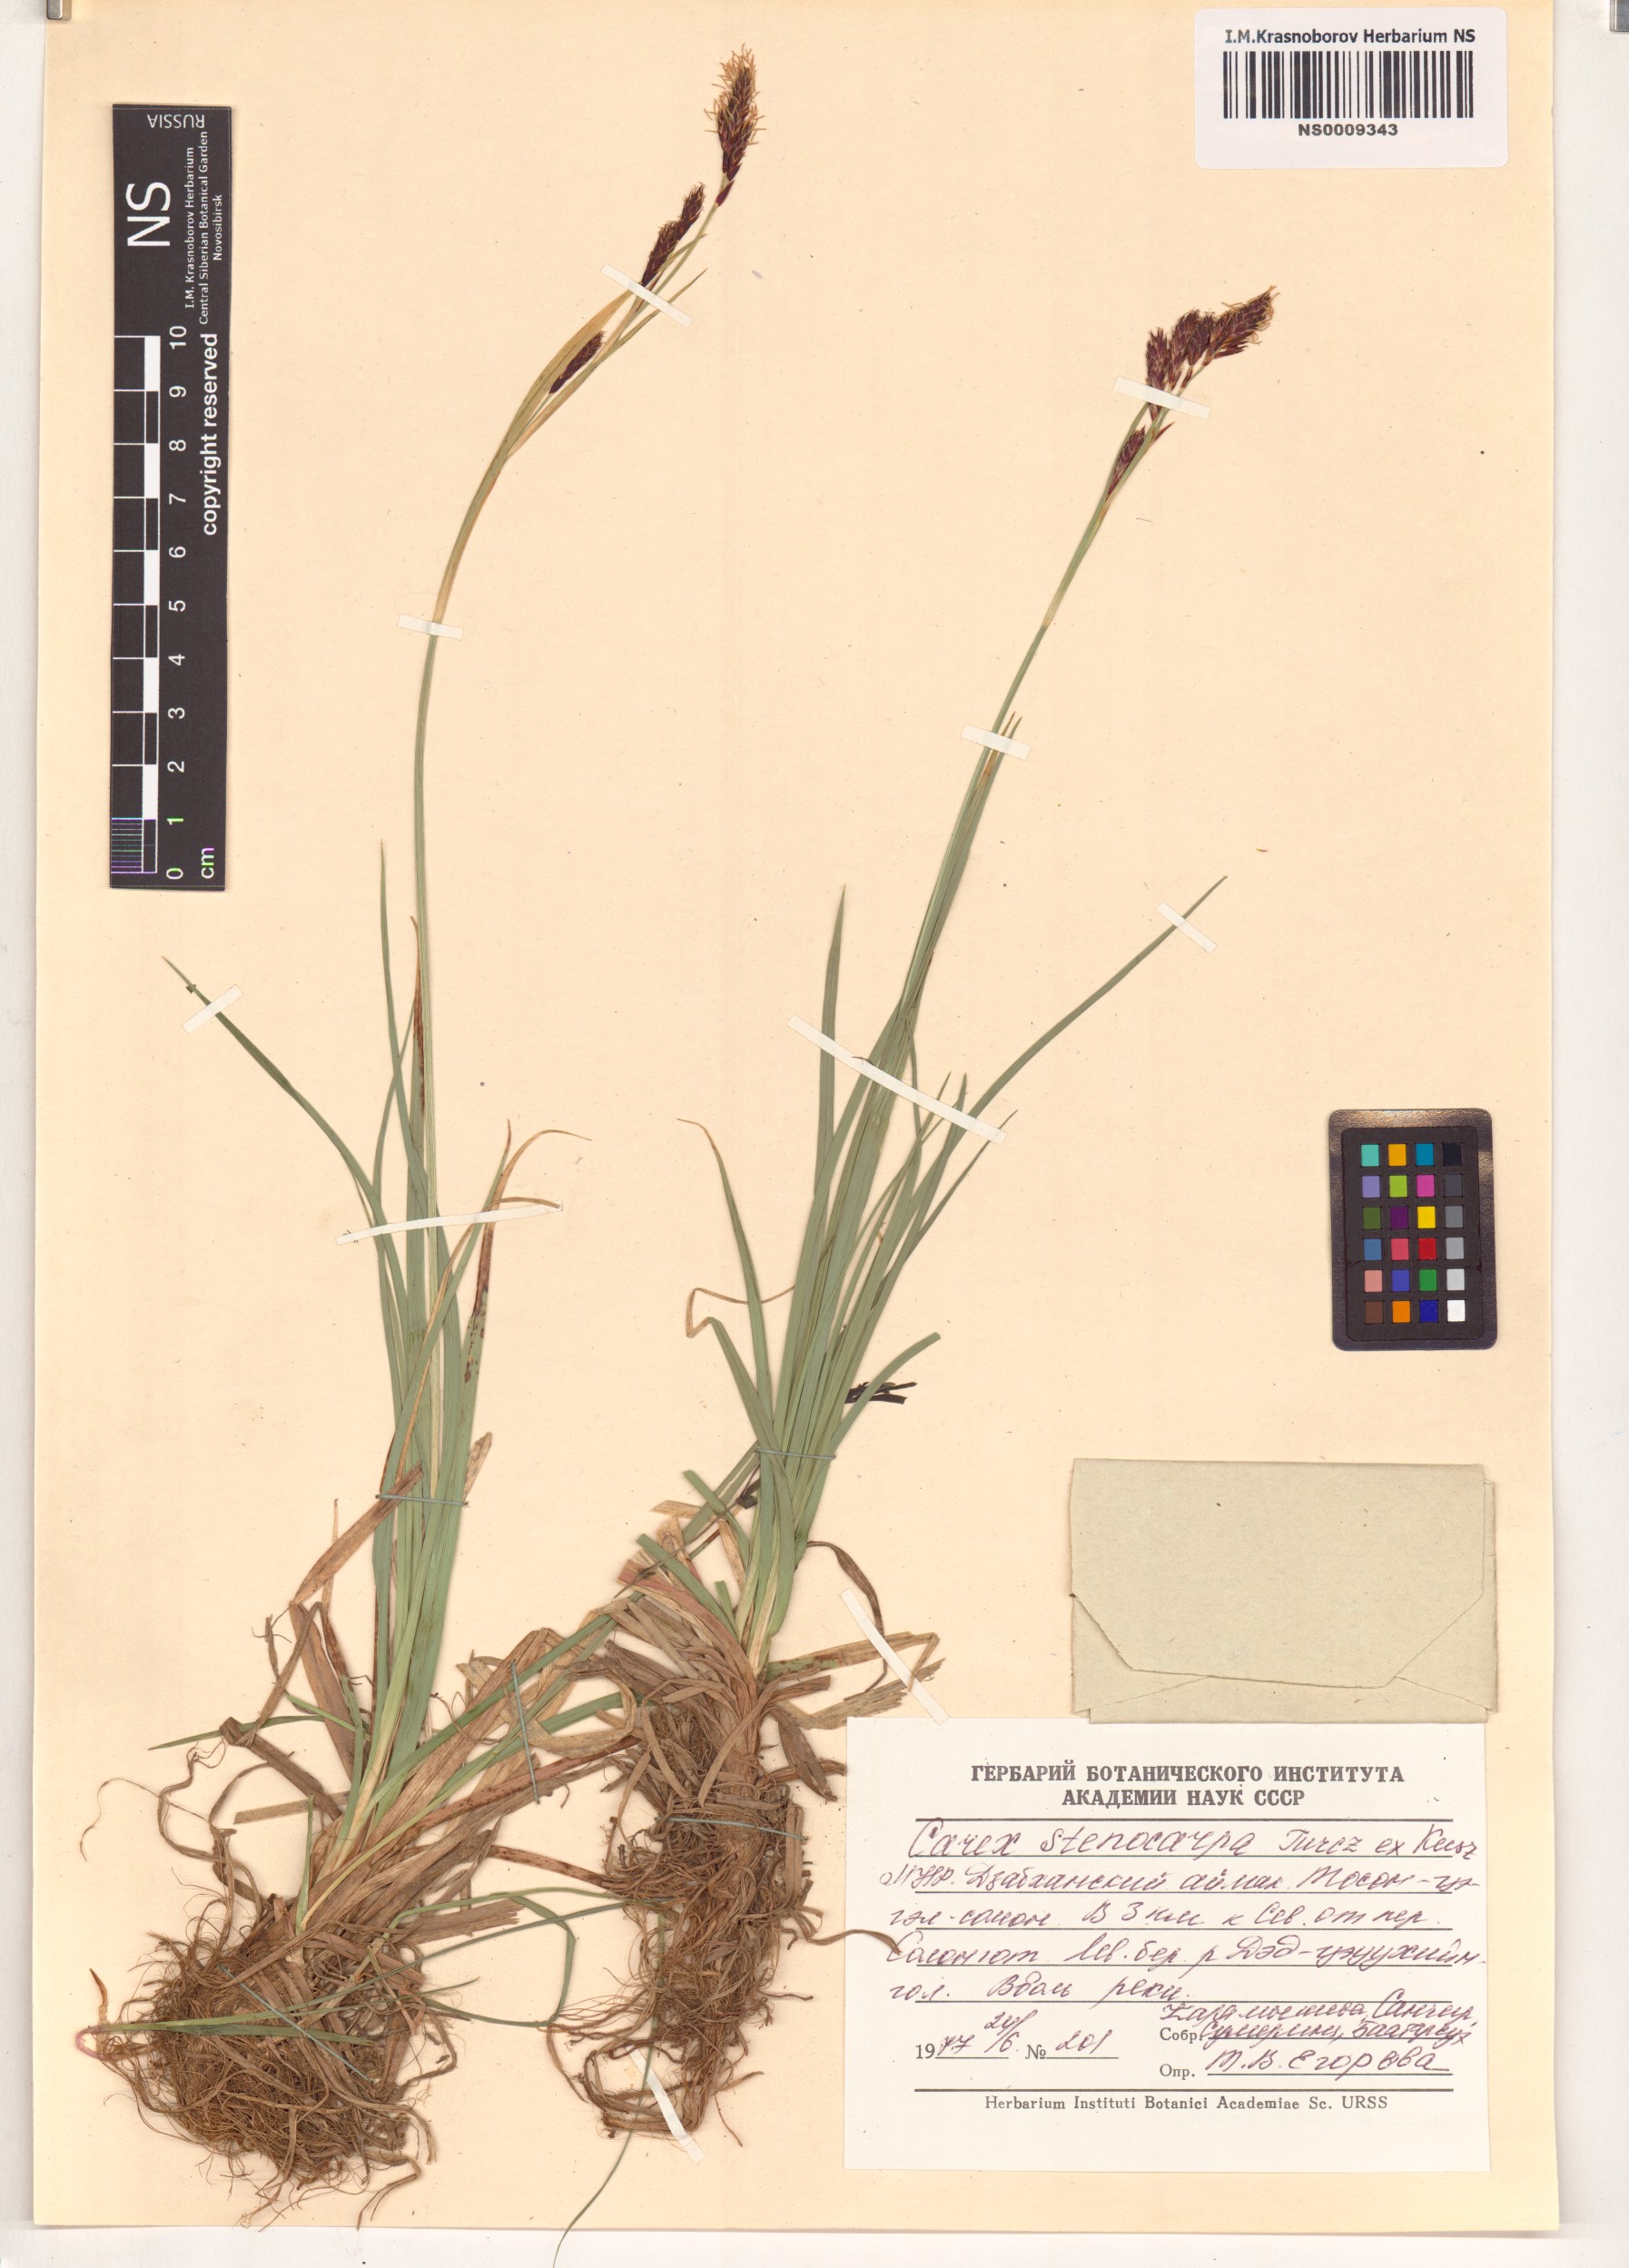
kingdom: Plantae
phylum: Tracheophyta
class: Liliopsida
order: Poales
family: Cyperaceae
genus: Carex
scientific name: Carex stenocarpa
